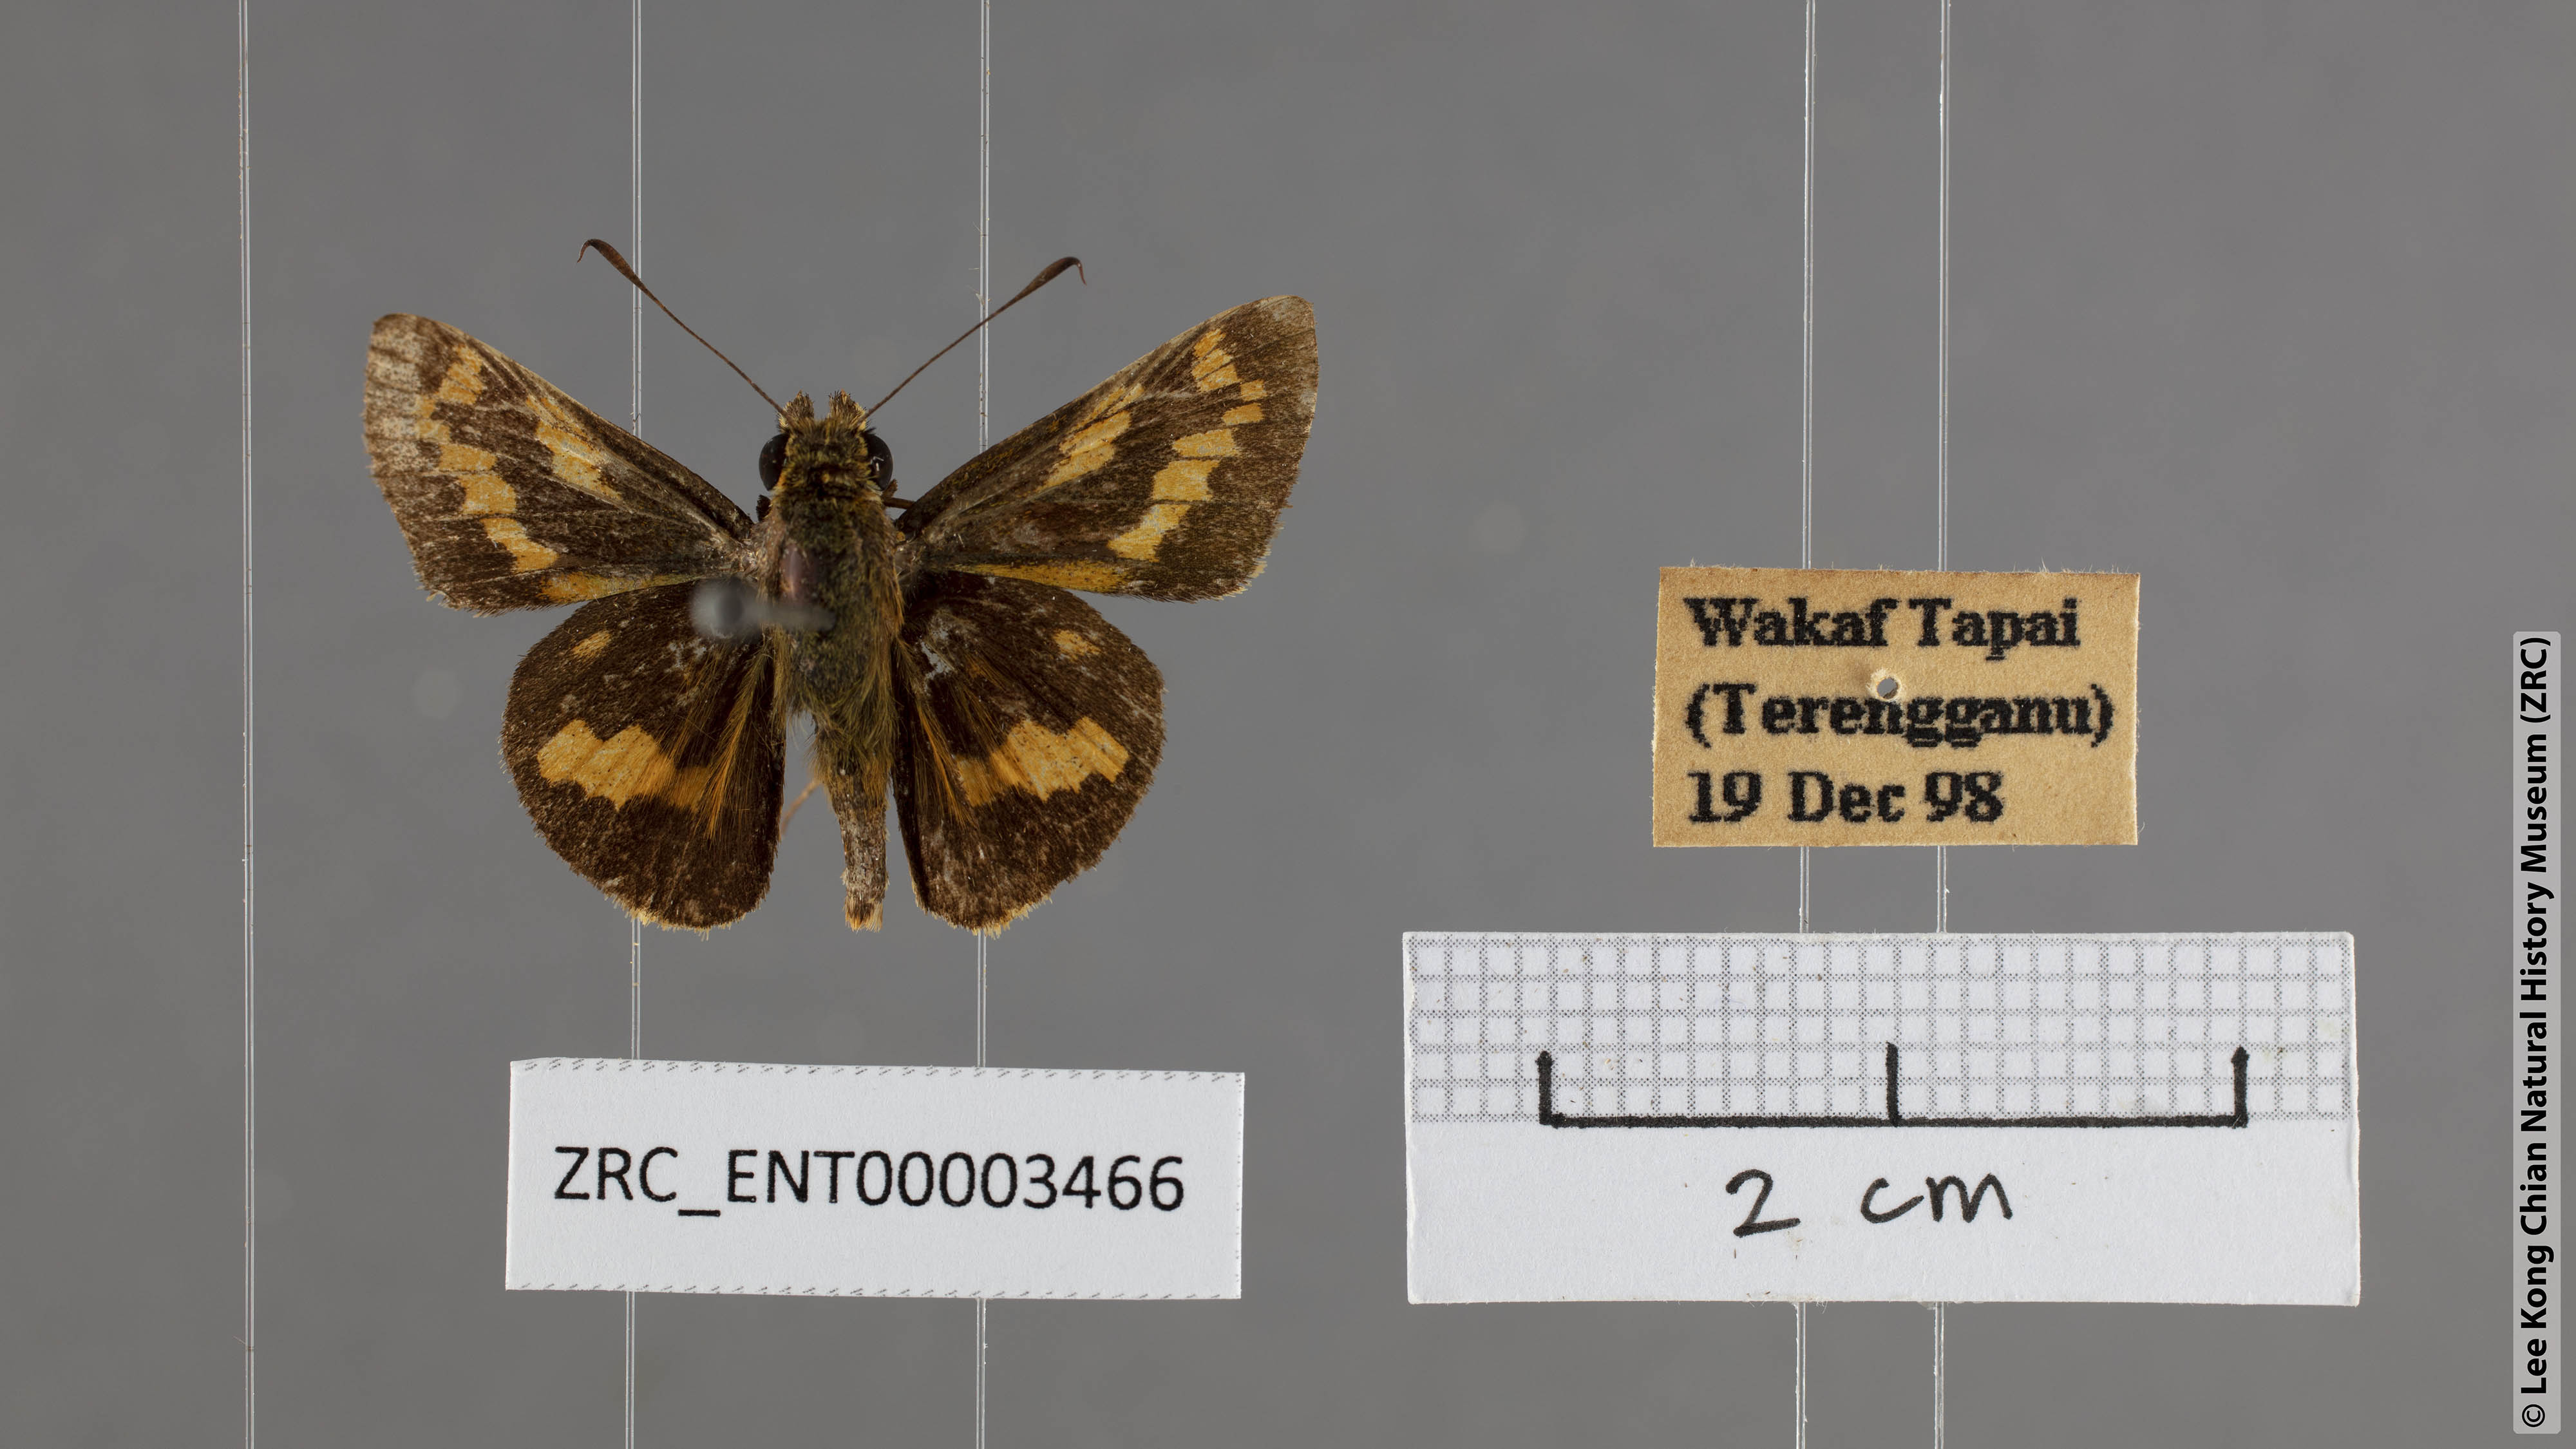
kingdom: Animalia
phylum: Arthropoda
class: Insecta
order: Lepidoptera
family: Hesperiidae
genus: Potanthus
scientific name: Potanthus
